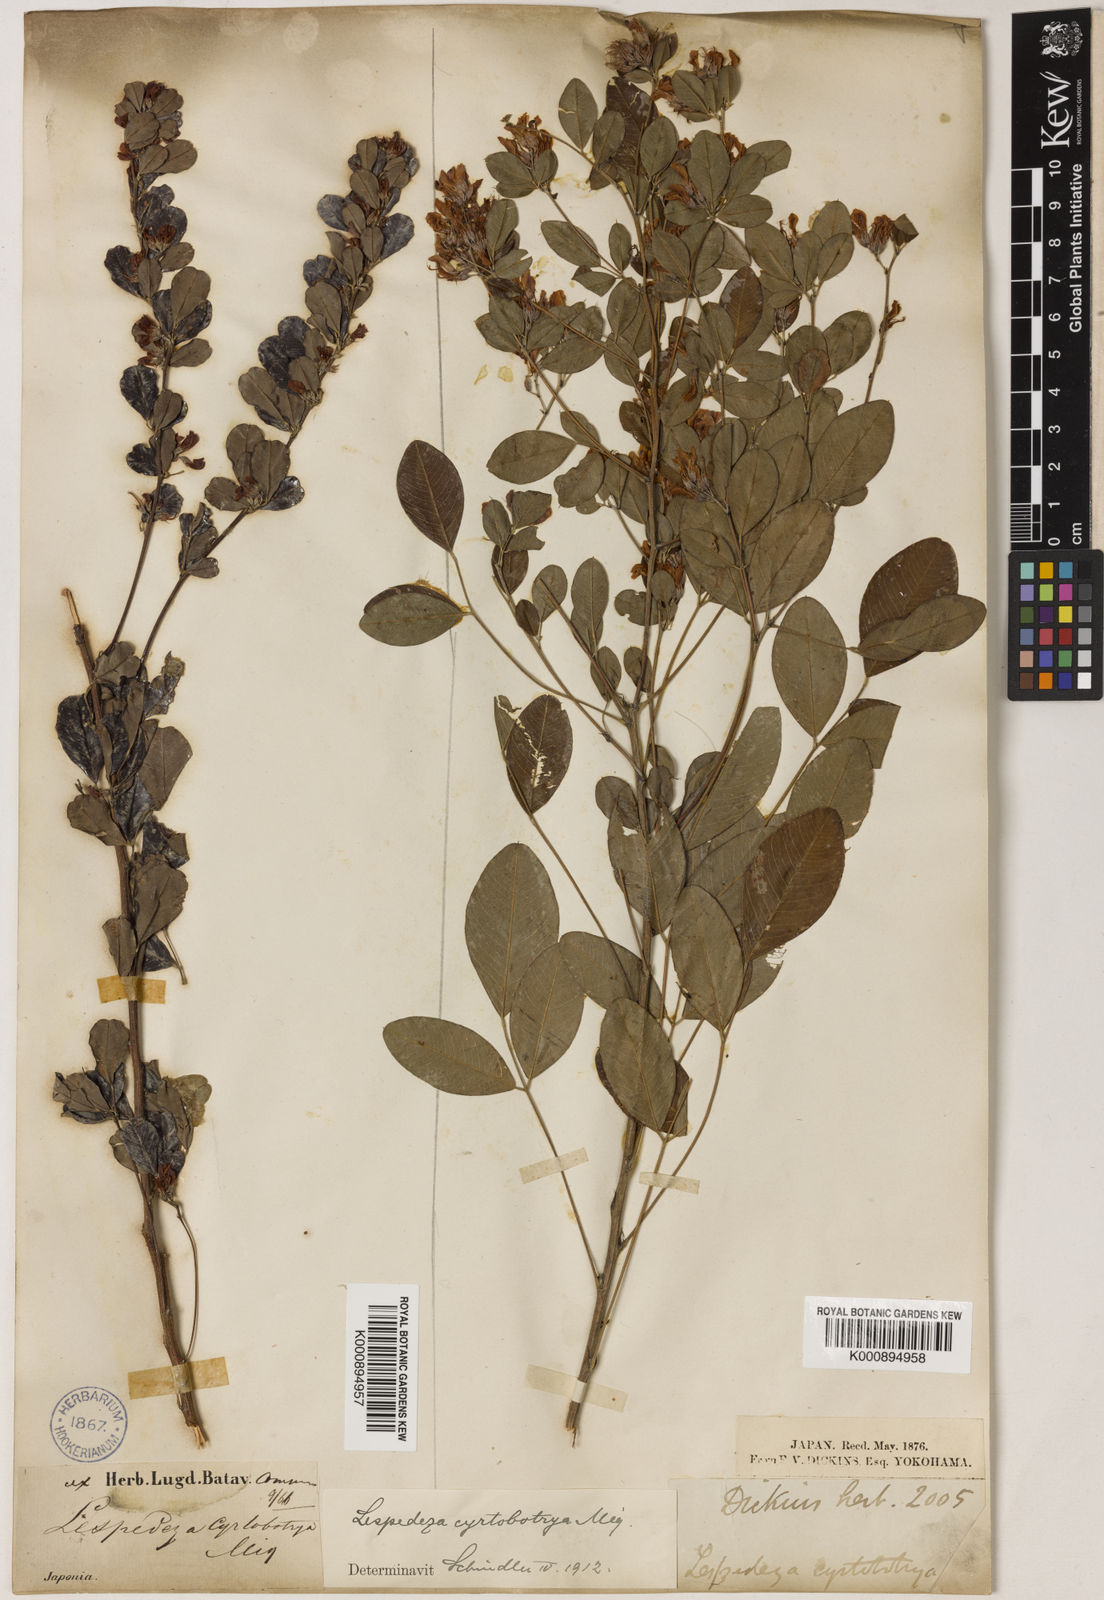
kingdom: Plantae
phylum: Tracheophyta
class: Magnoliopsida
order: Fabales
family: Fabaceae
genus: Lespedeza
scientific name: Lespedeza cyrtobotrya
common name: Leafy lespedeza
